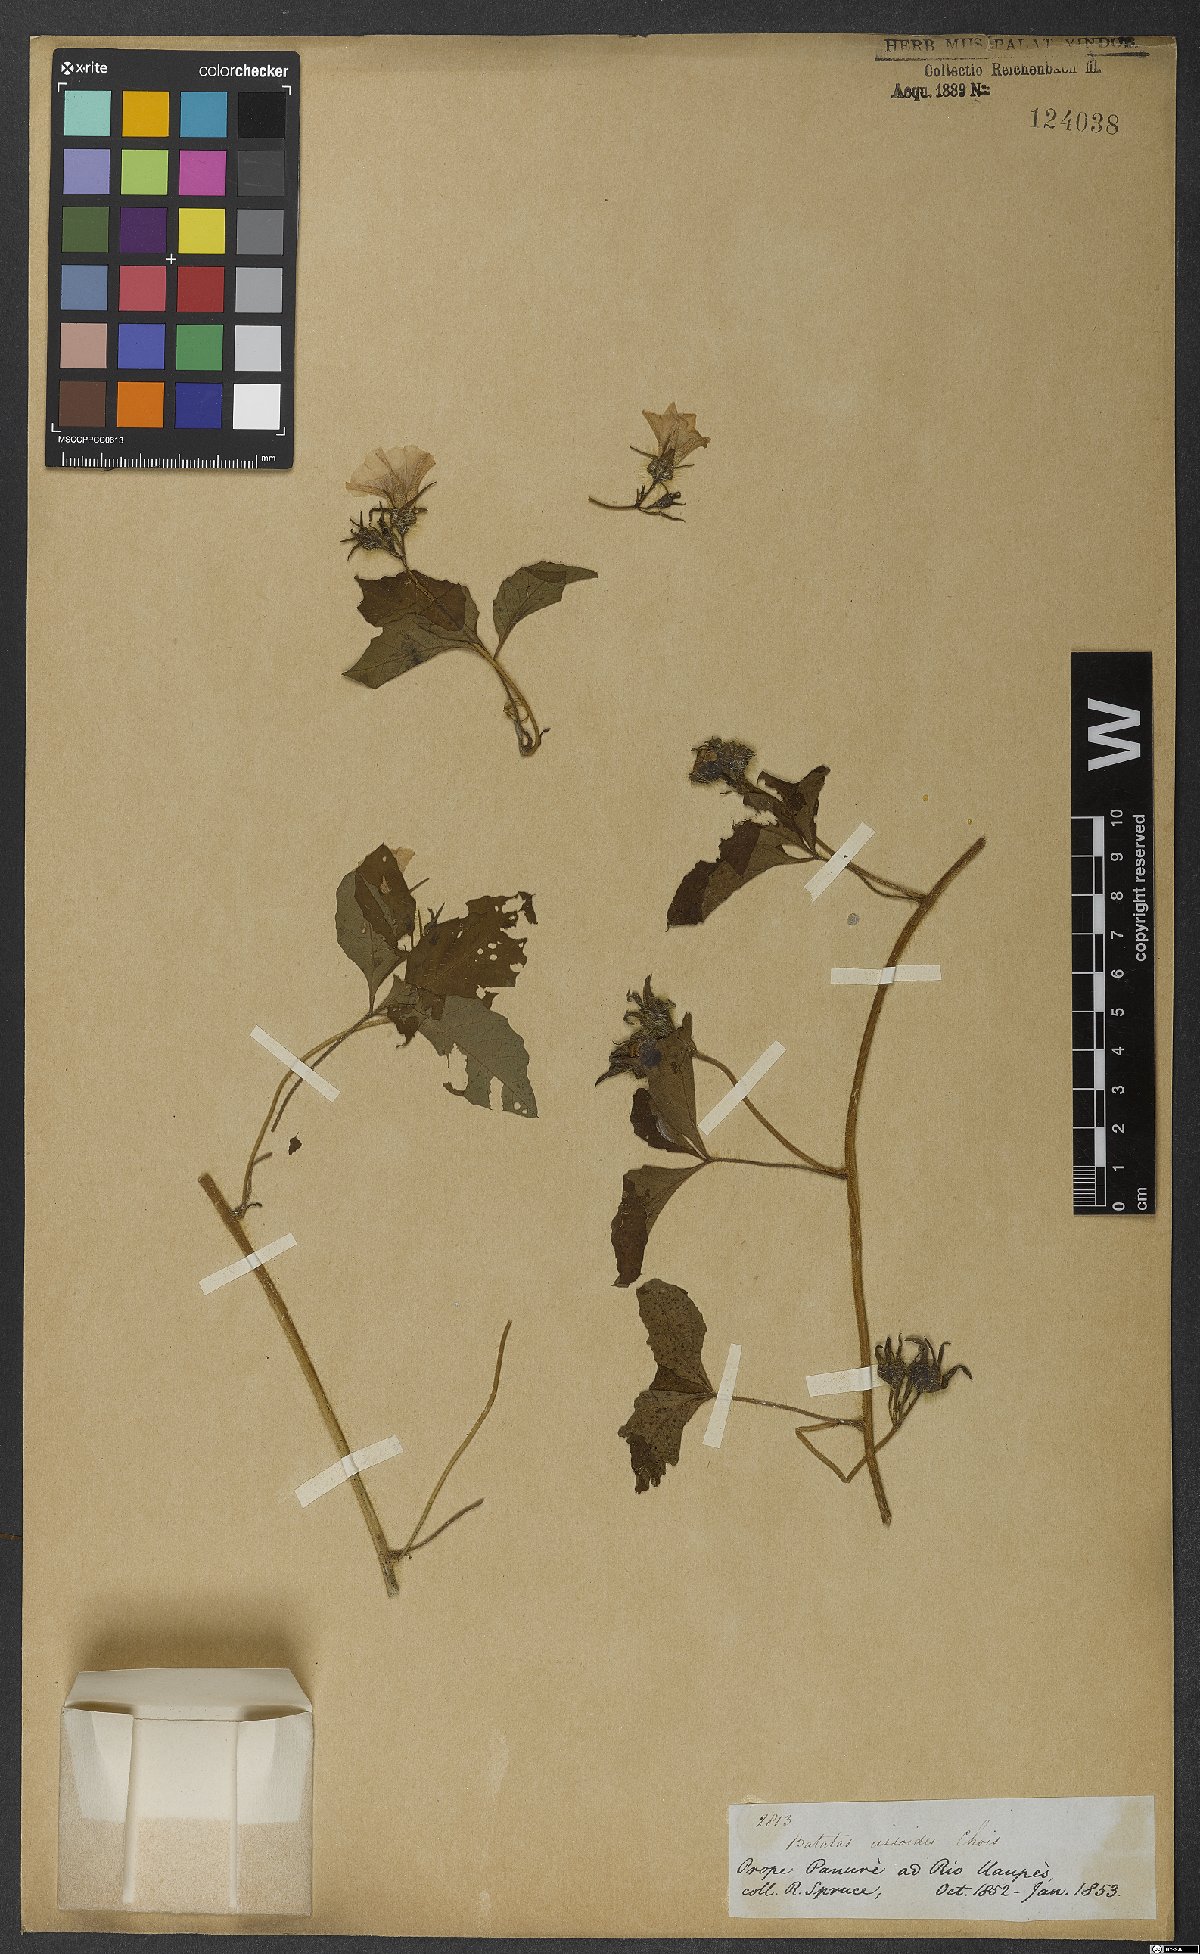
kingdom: Plantae
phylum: Tracheophyta
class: Magnoliopsida
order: Solanales
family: Convolvulaceae
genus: Distimake
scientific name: Distimake cissoides
